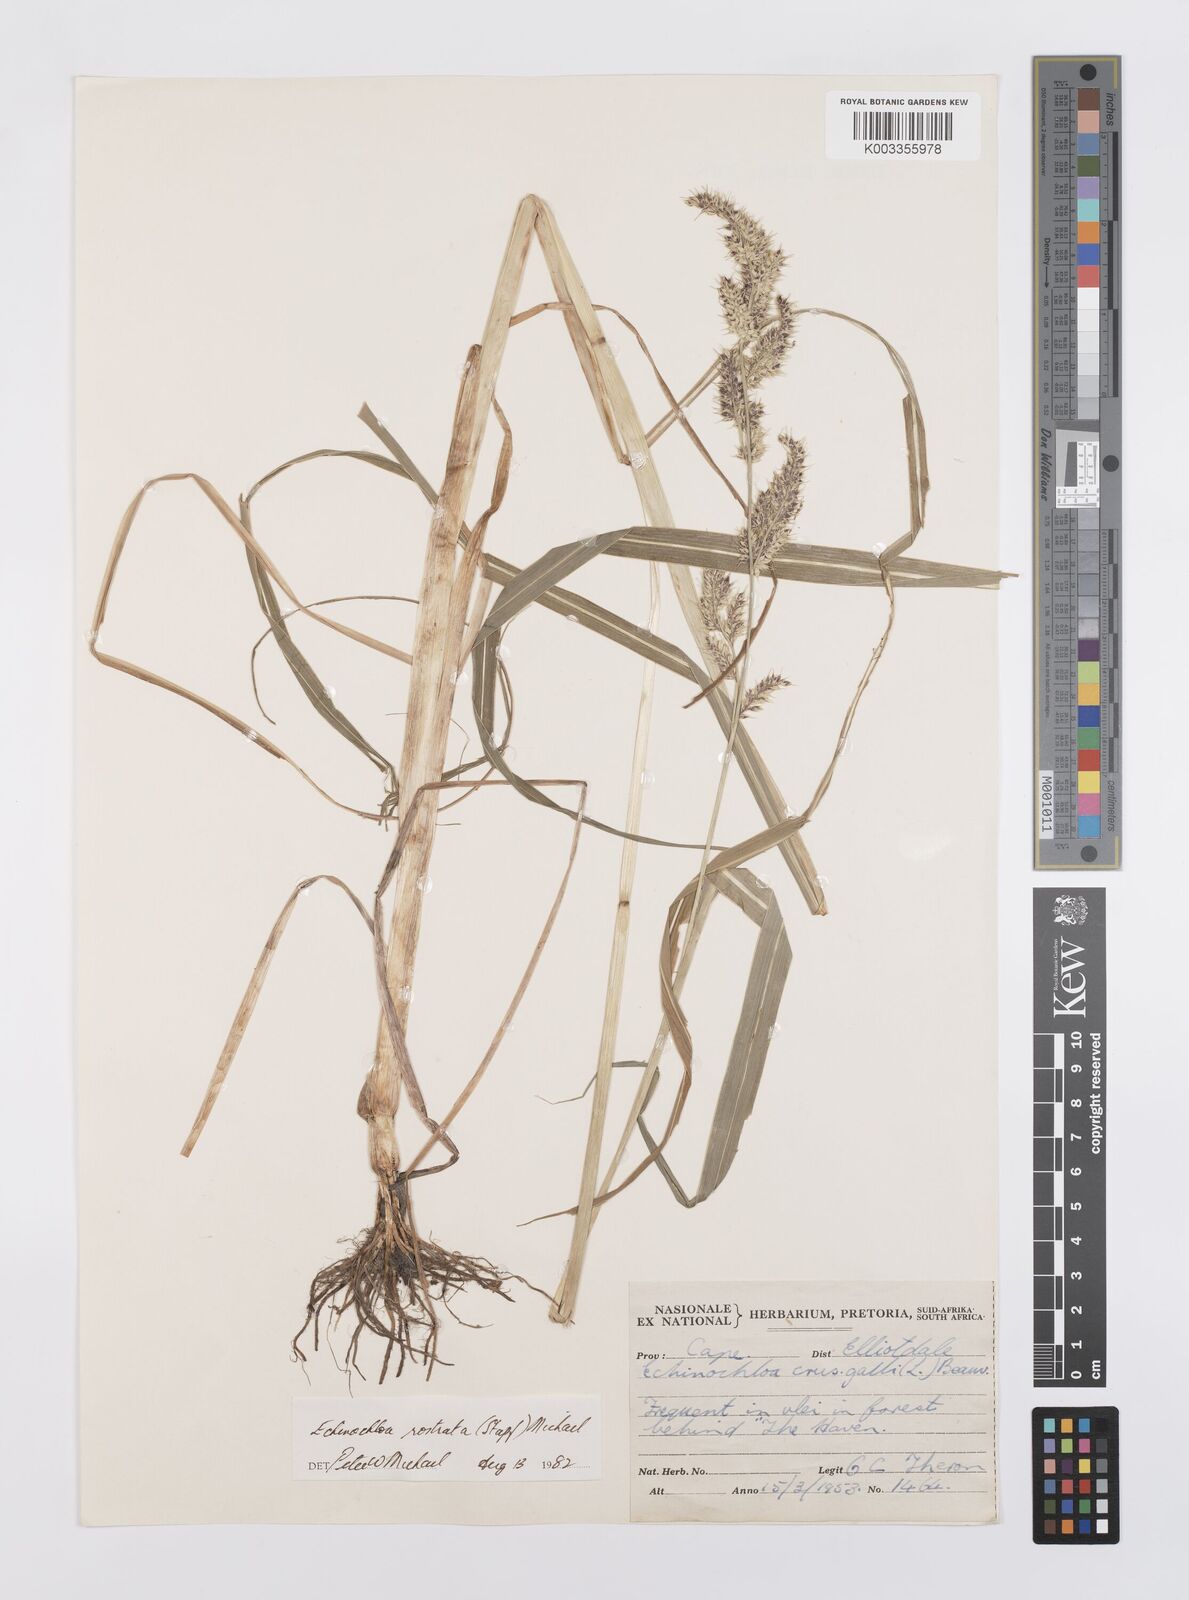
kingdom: Plantae
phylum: Tracheophyta
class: Liliopsida
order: Poales
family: Poaceae
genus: Echinochloa
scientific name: Echinochloa crus-pavonis
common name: Gulf cockspur grass
